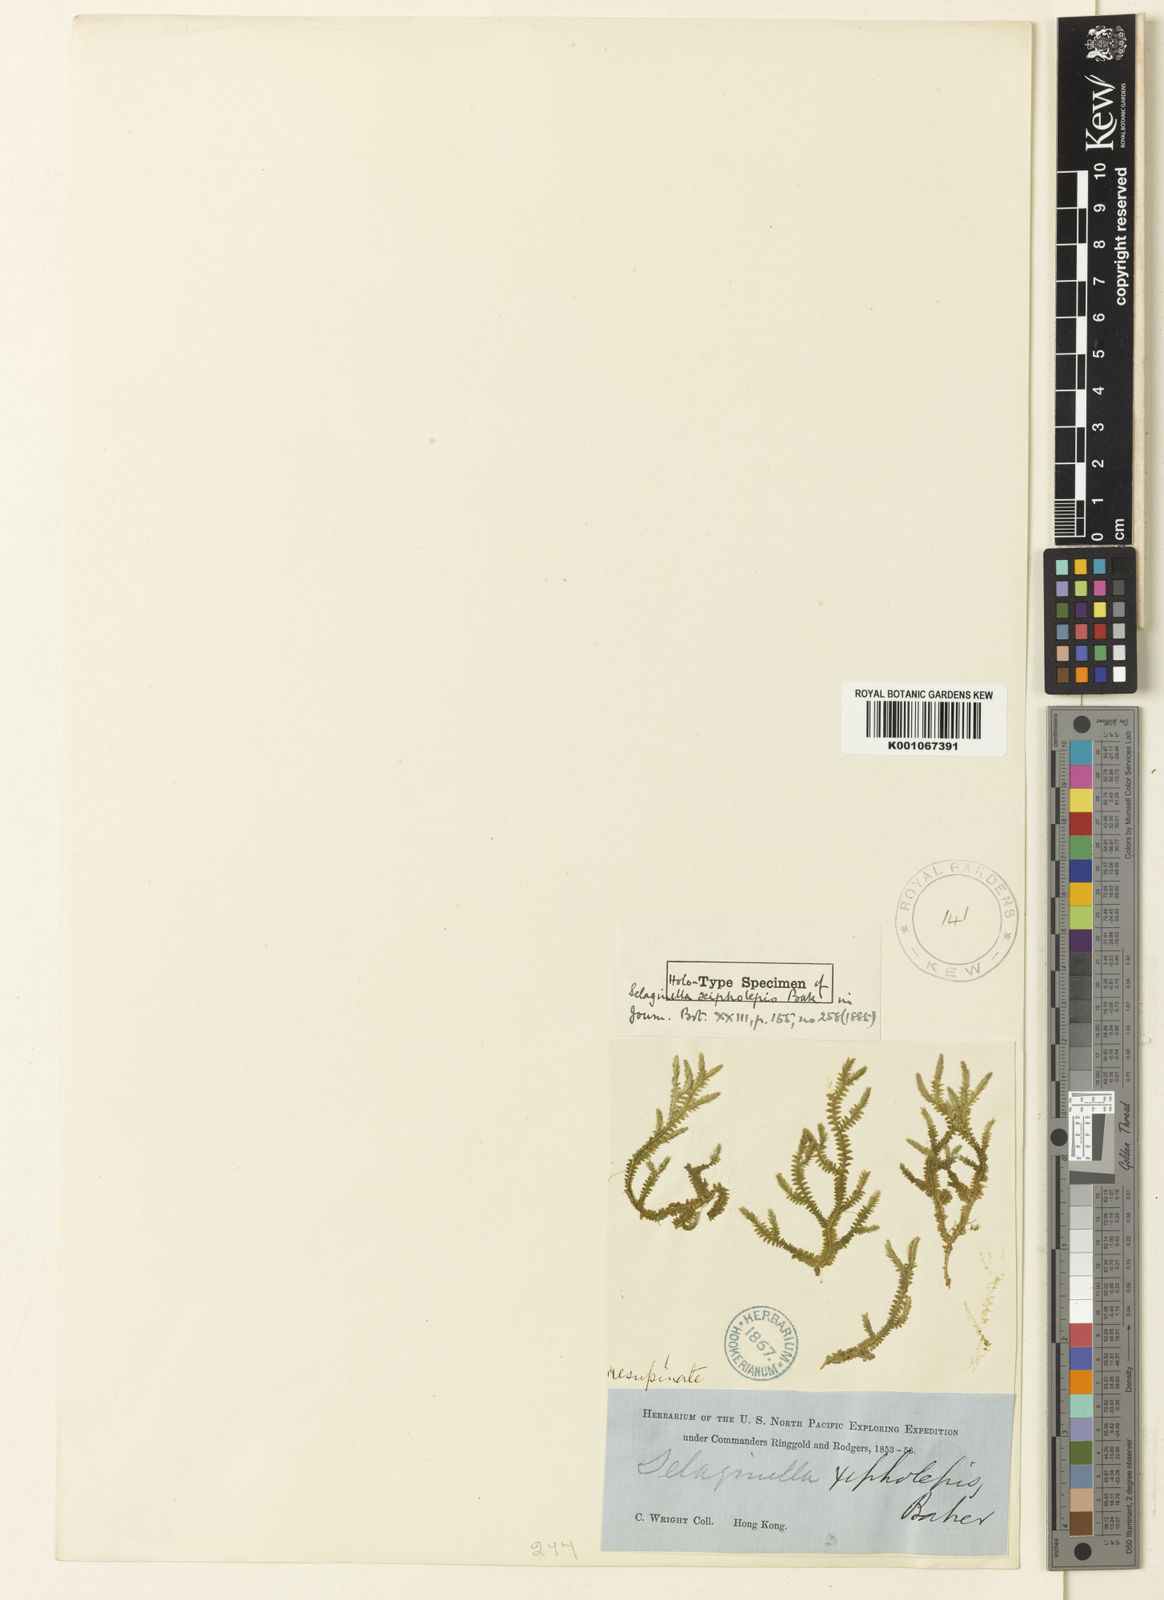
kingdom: Plantae
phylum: Tracheophyta
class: Lycopodiopsida
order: Selaginellales
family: Selaginellaceae
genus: Selaginella
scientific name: Selaginella heterostachys
